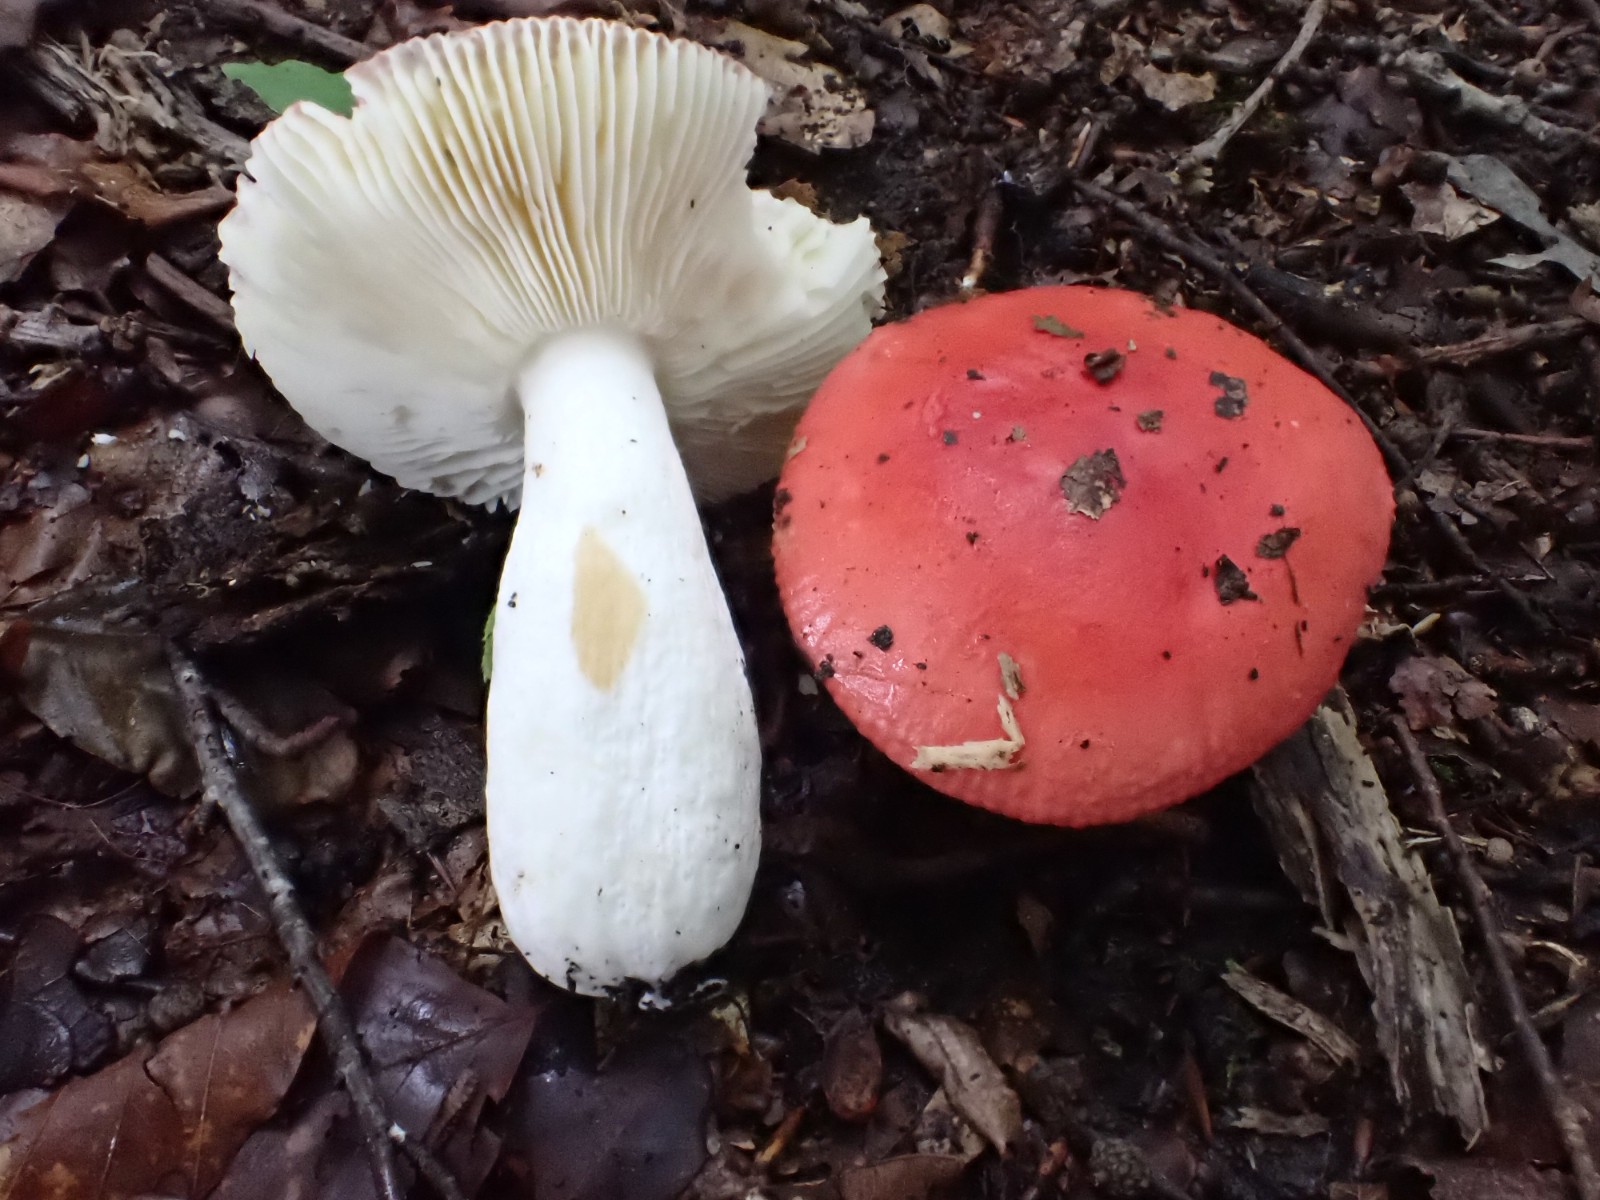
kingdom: Fungi
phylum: Basidiomycota
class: Agaricomycetes
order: Russulales
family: Russulaceae
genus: Russula
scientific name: Russula pseudointegra
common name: cinnoberrød skørhat
